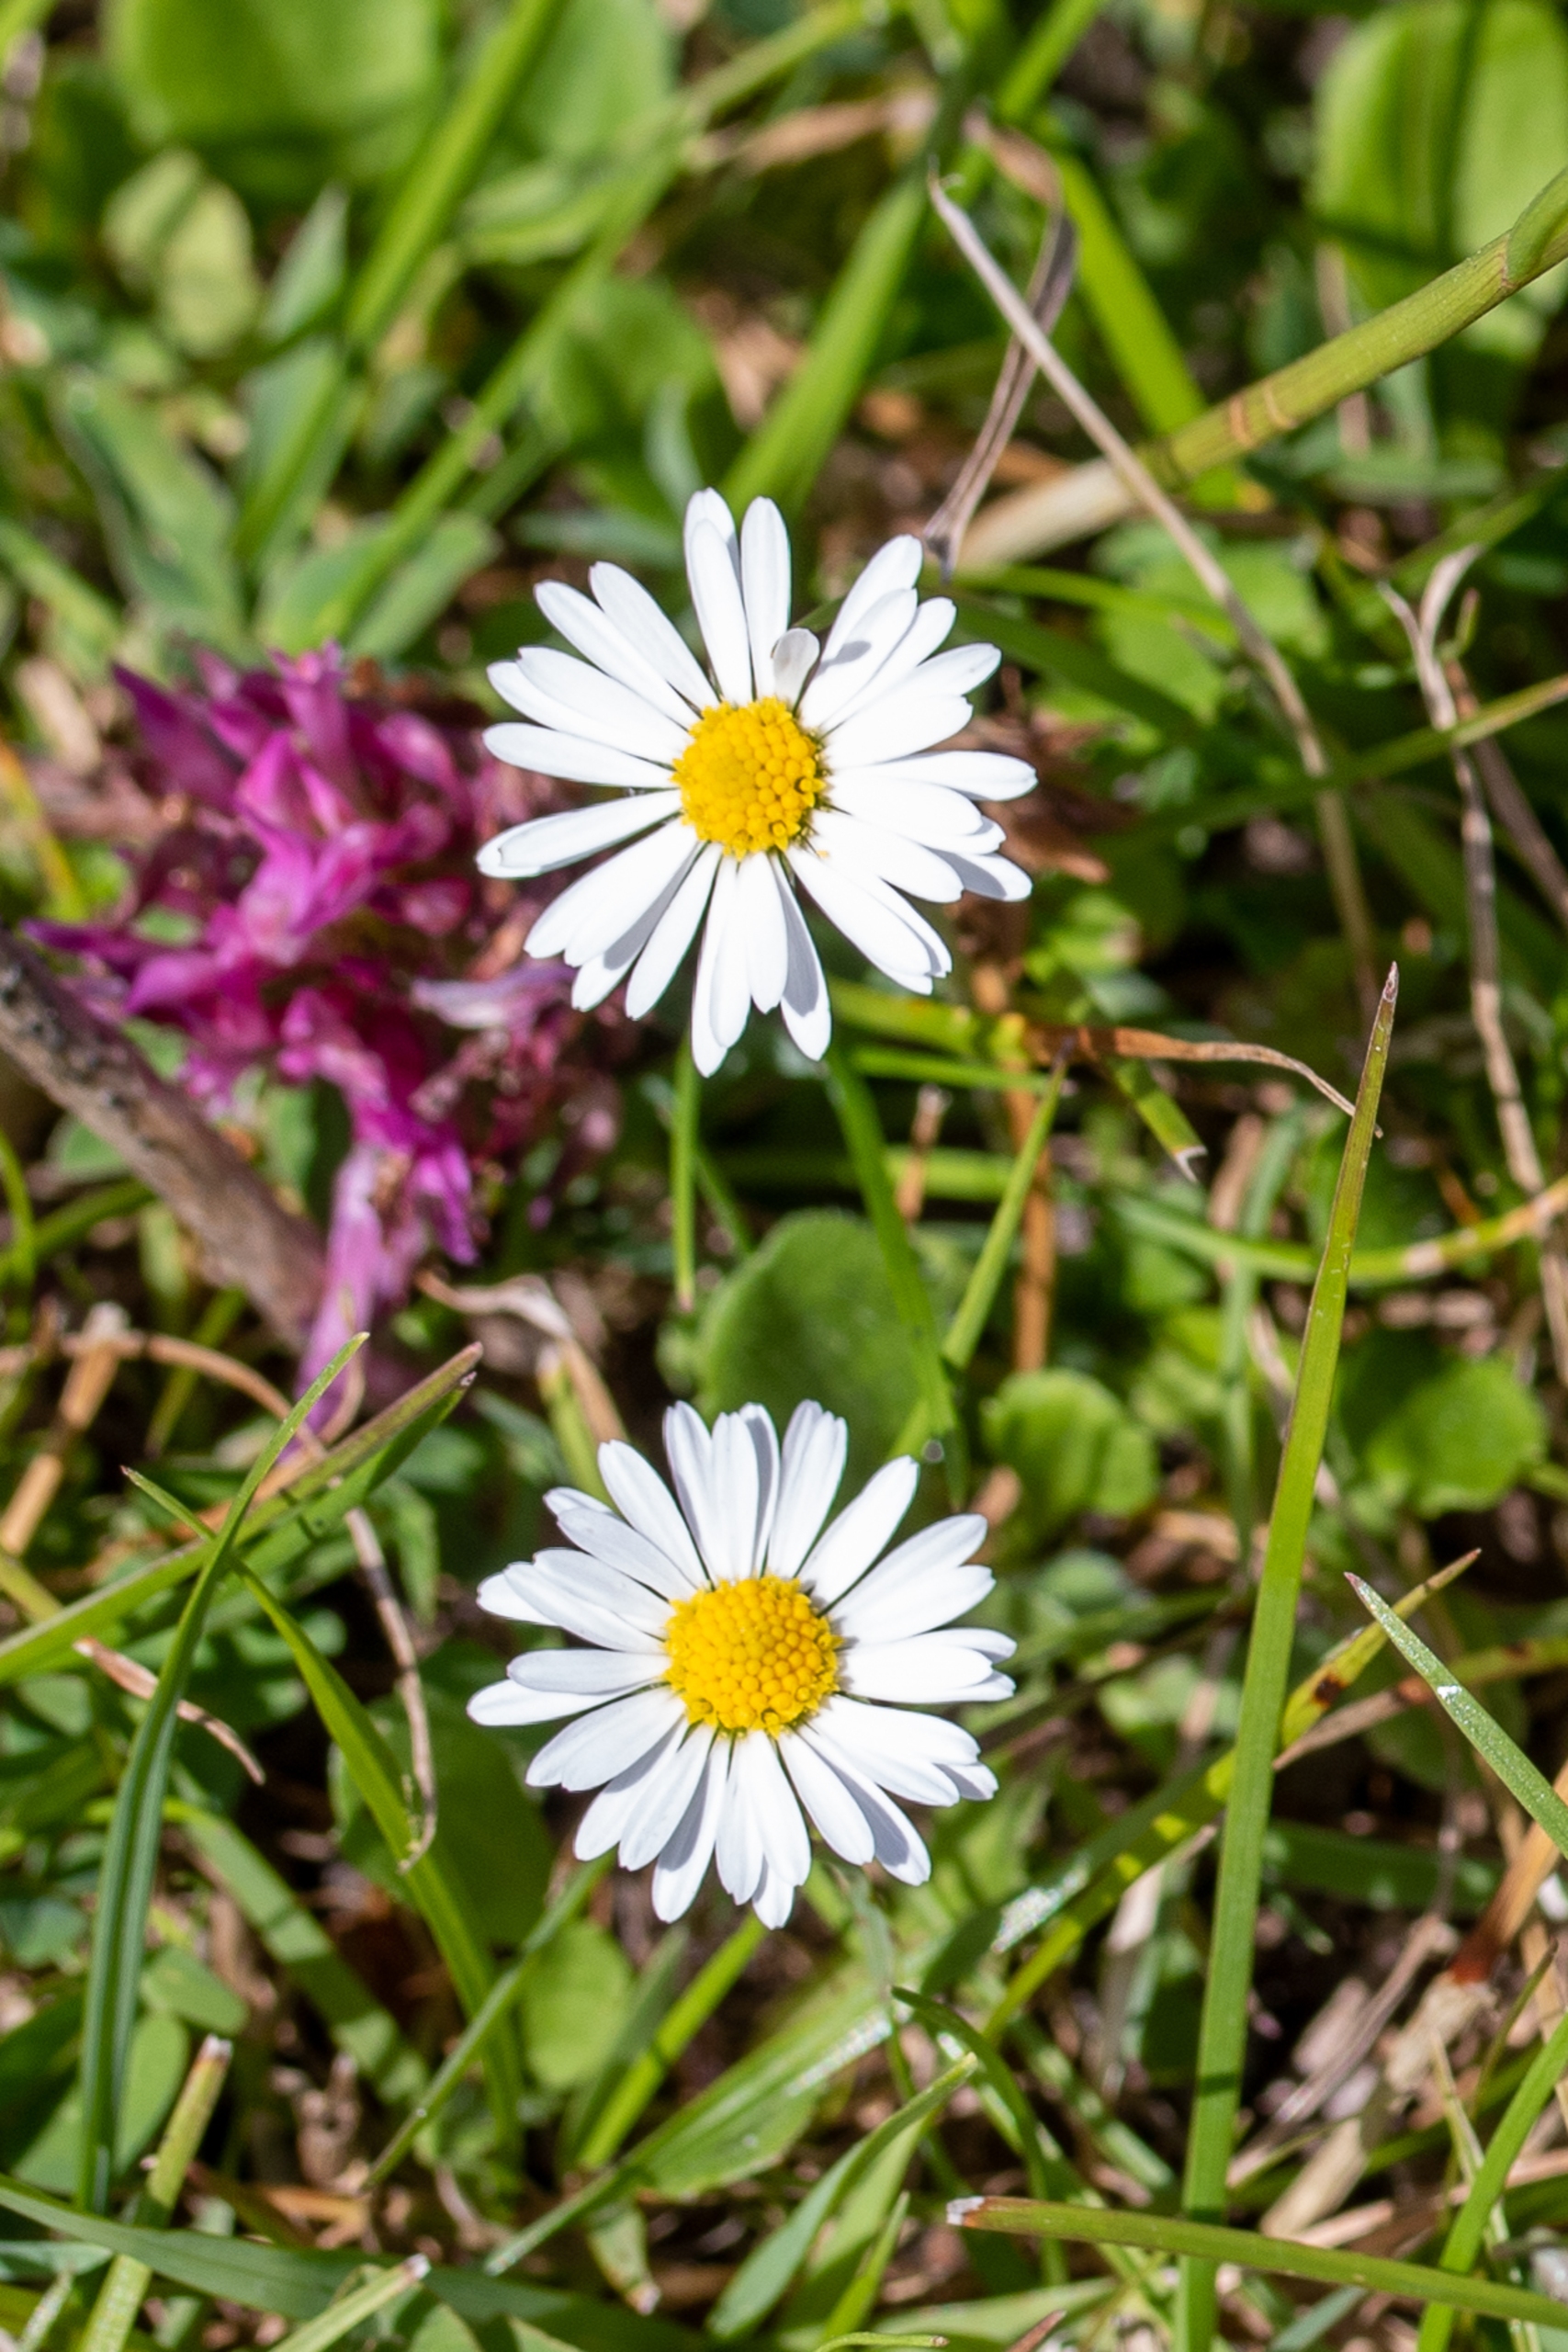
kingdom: Plantae
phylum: Tracheophyta
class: Magnoliopsida
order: Asterales
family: Asteraceae
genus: Bellis
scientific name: Bellis perennis
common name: Tusindfryd
